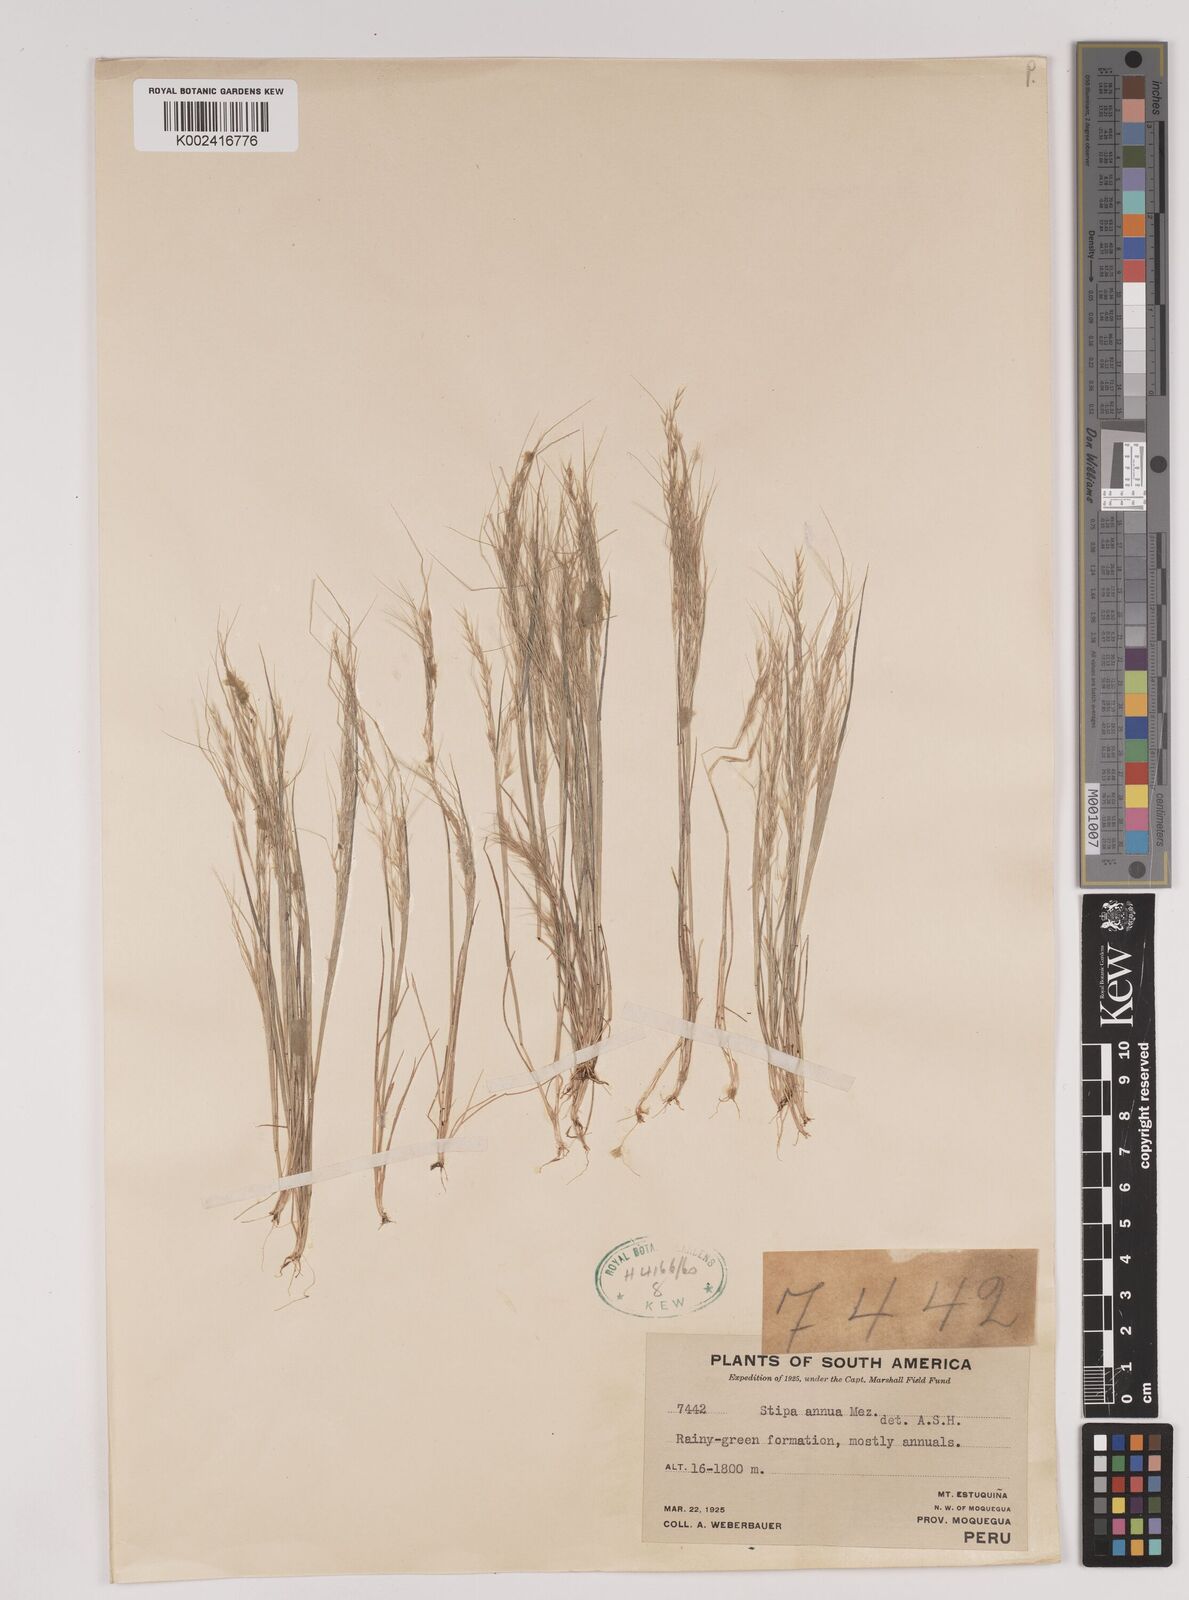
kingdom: Plantae
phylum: Tracheophyta
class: Liliopsida
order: Poales
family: Poaceae
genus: Stipa
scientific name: Stipa annua
